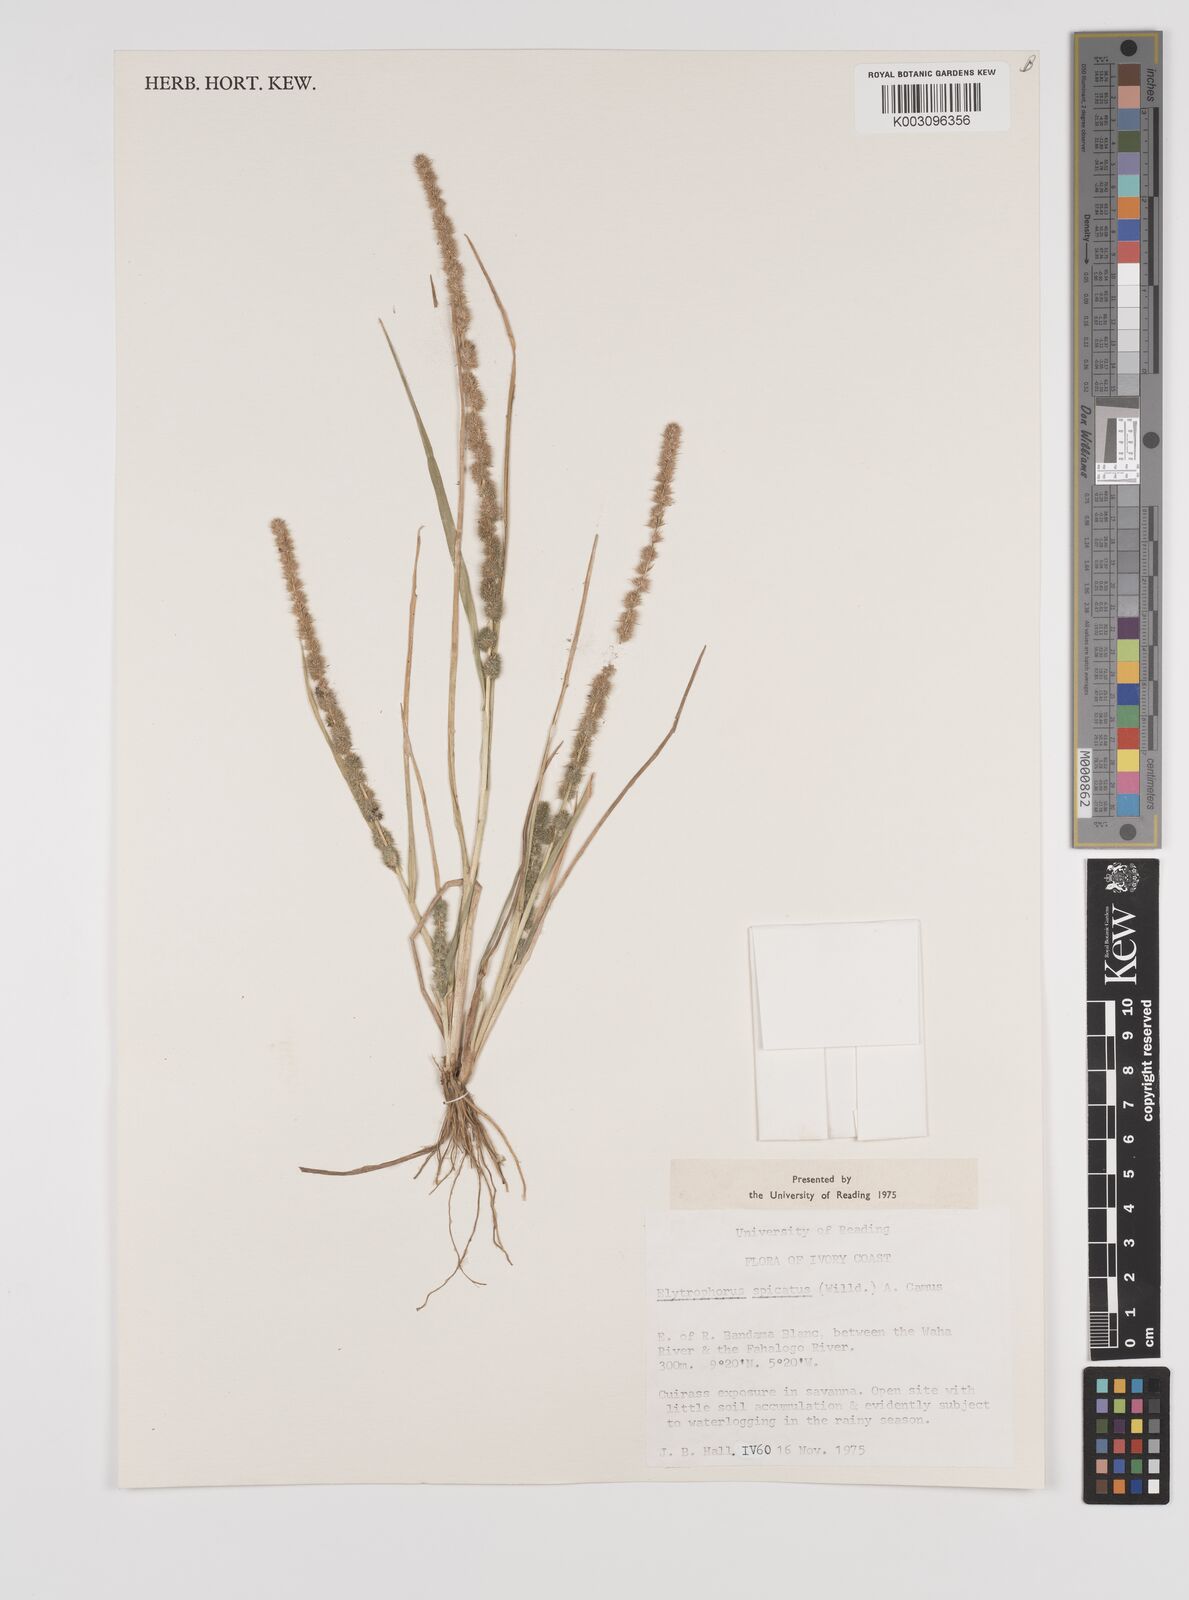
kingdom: Plantae
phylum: Tracheophyta
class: Liliopsida
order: Poales
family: Poaceae
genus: Elytrophorus
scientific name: Elytrophorus spicatus
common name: Spike grass
